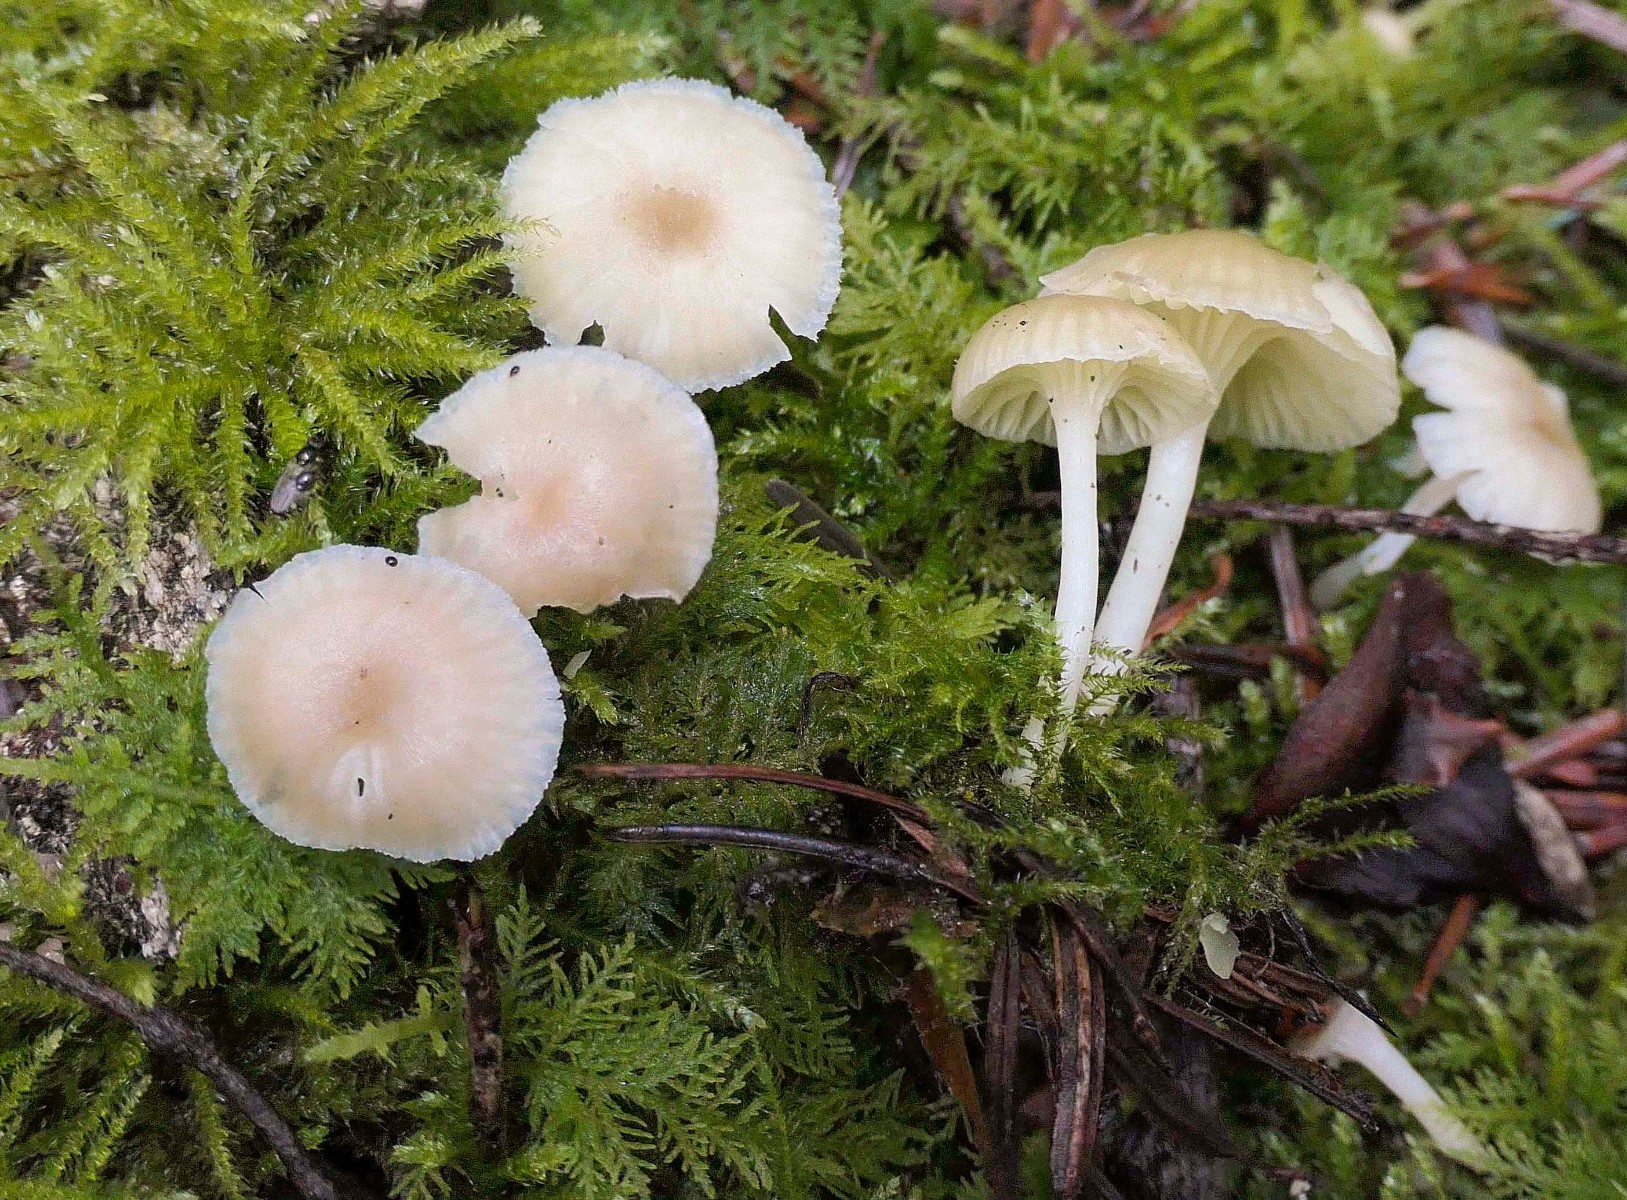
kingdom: Fungi
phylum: Basidiomycota
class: Agaricomycetes
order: Agaricales
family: Hygrophoraceae
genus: Chrysomphalina
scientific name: Chrysomphalina grossula
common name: stød-gyldenblad
